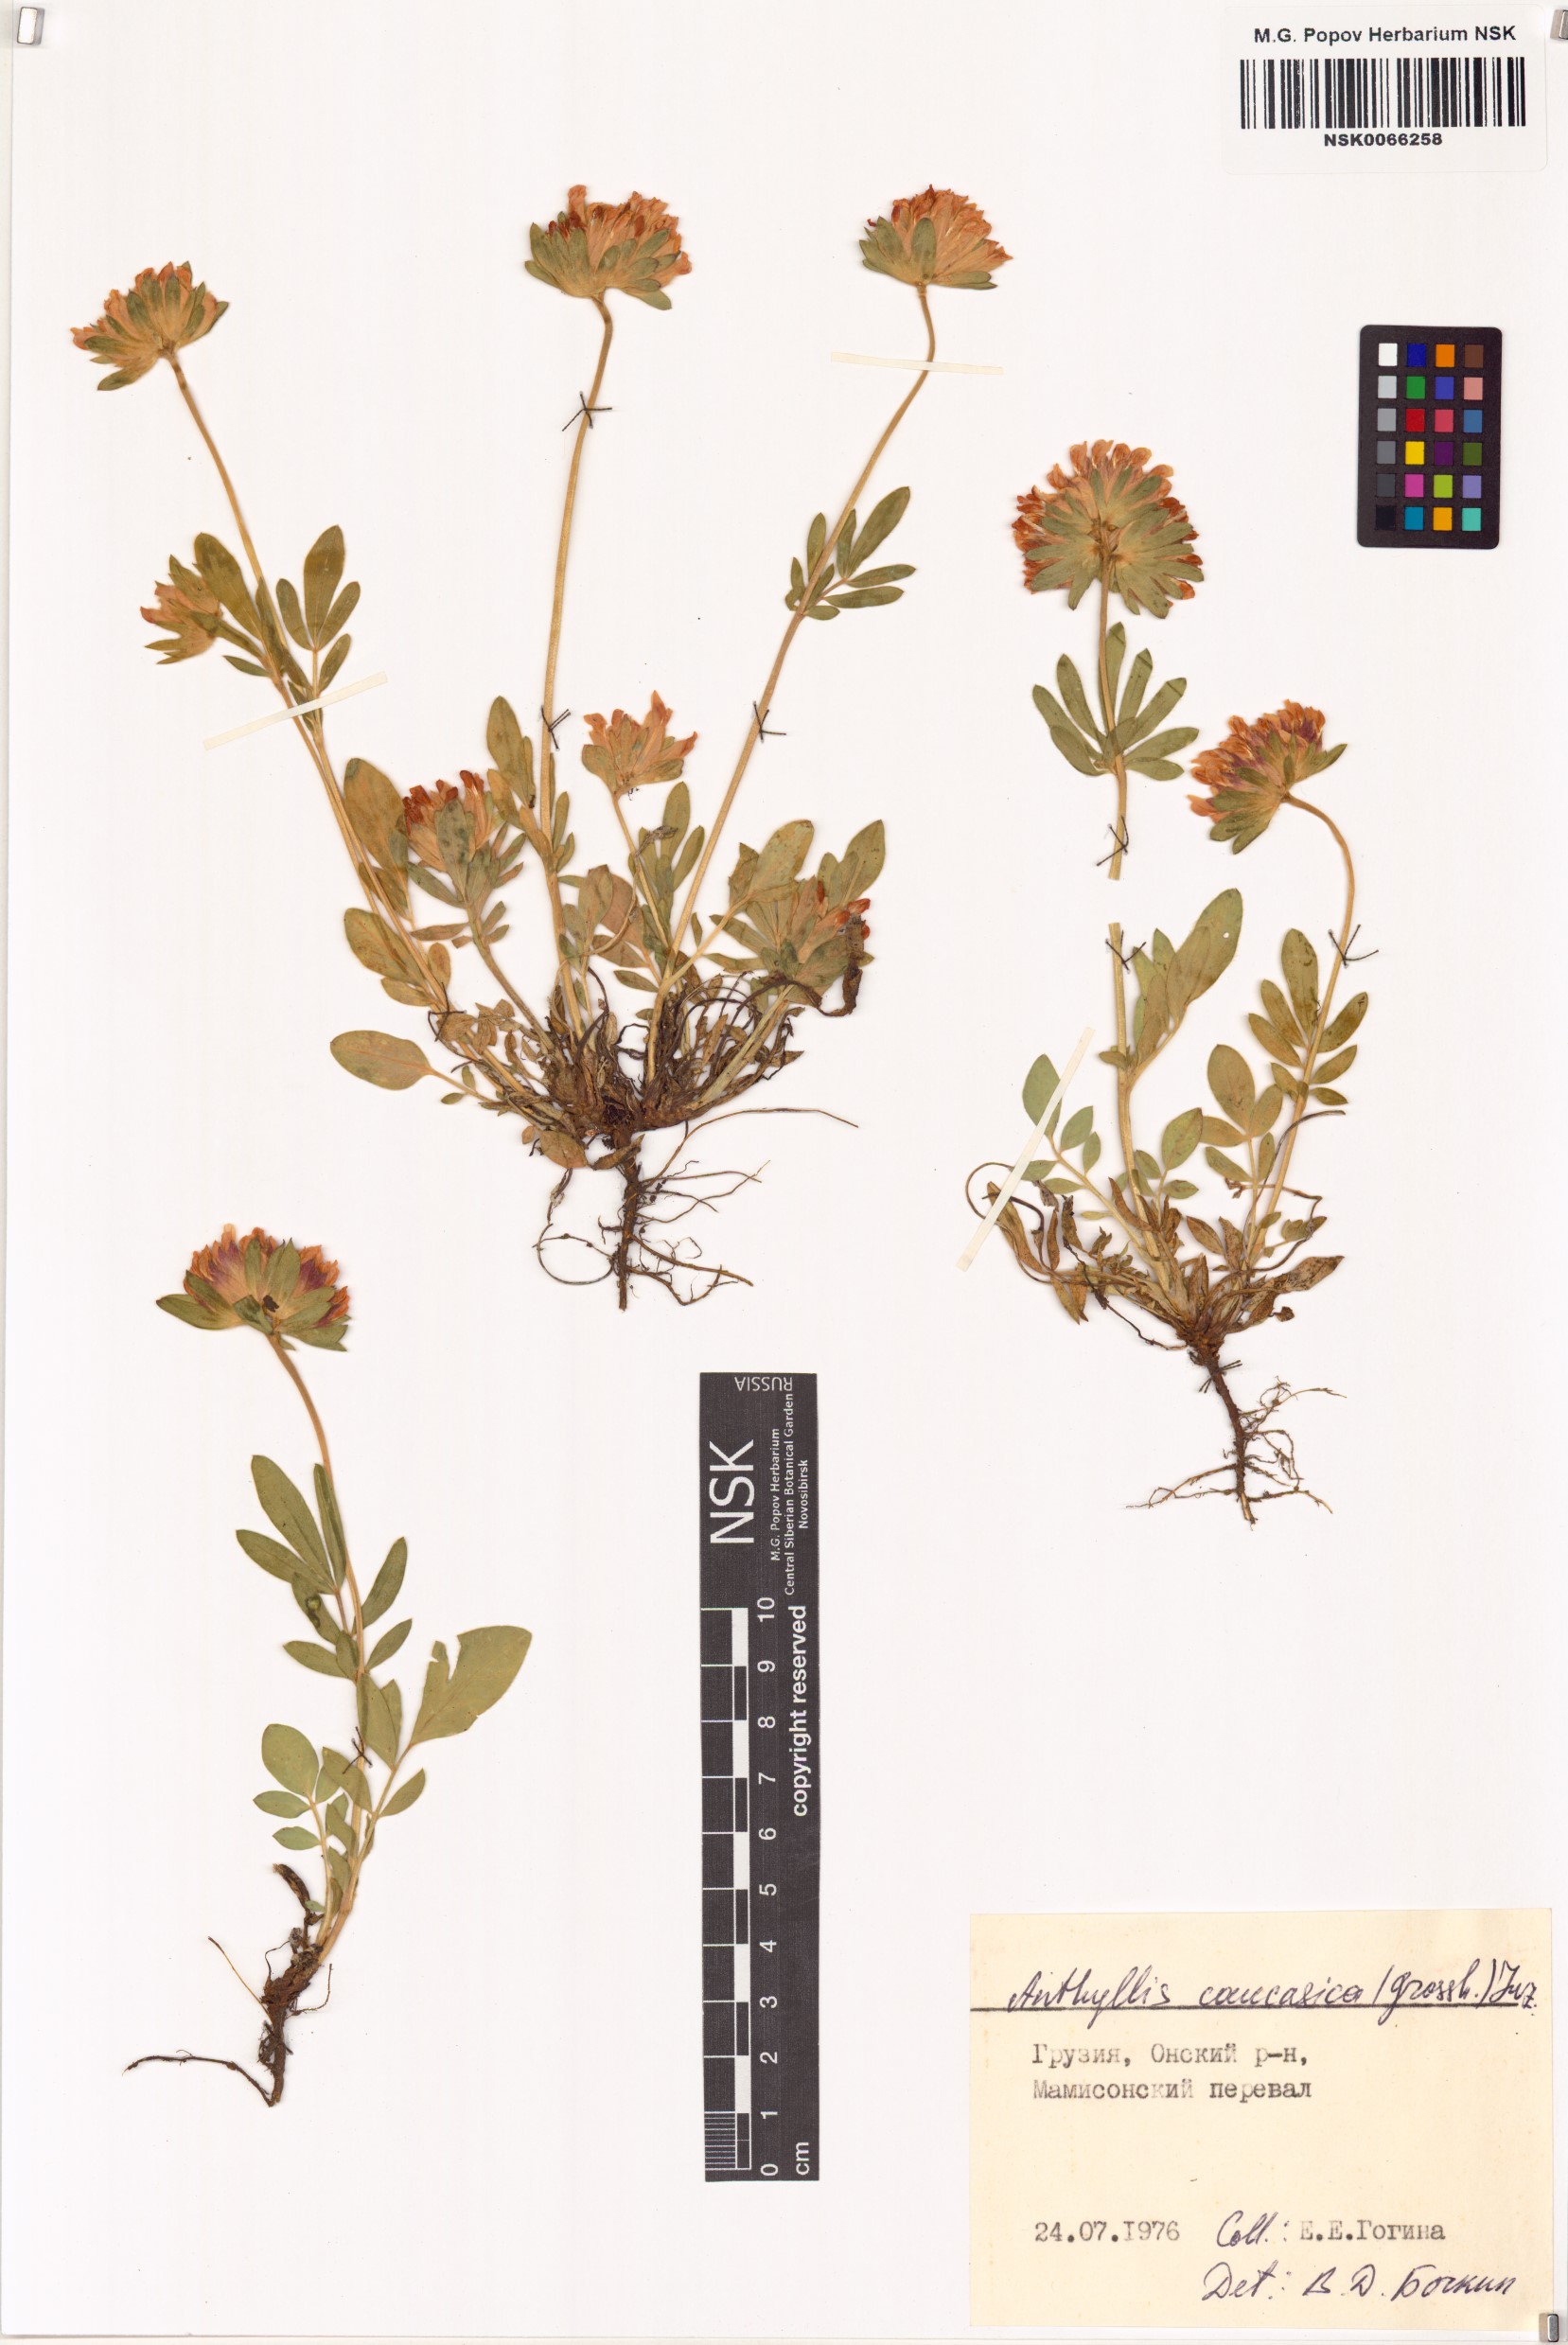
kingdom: Plantae
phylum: Tracheophyta
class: Magnoliopsida
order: Fabales
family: Fabaceae
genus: Anthyllis
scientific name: Anthyllis vulneraria
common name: Kidney vetch
